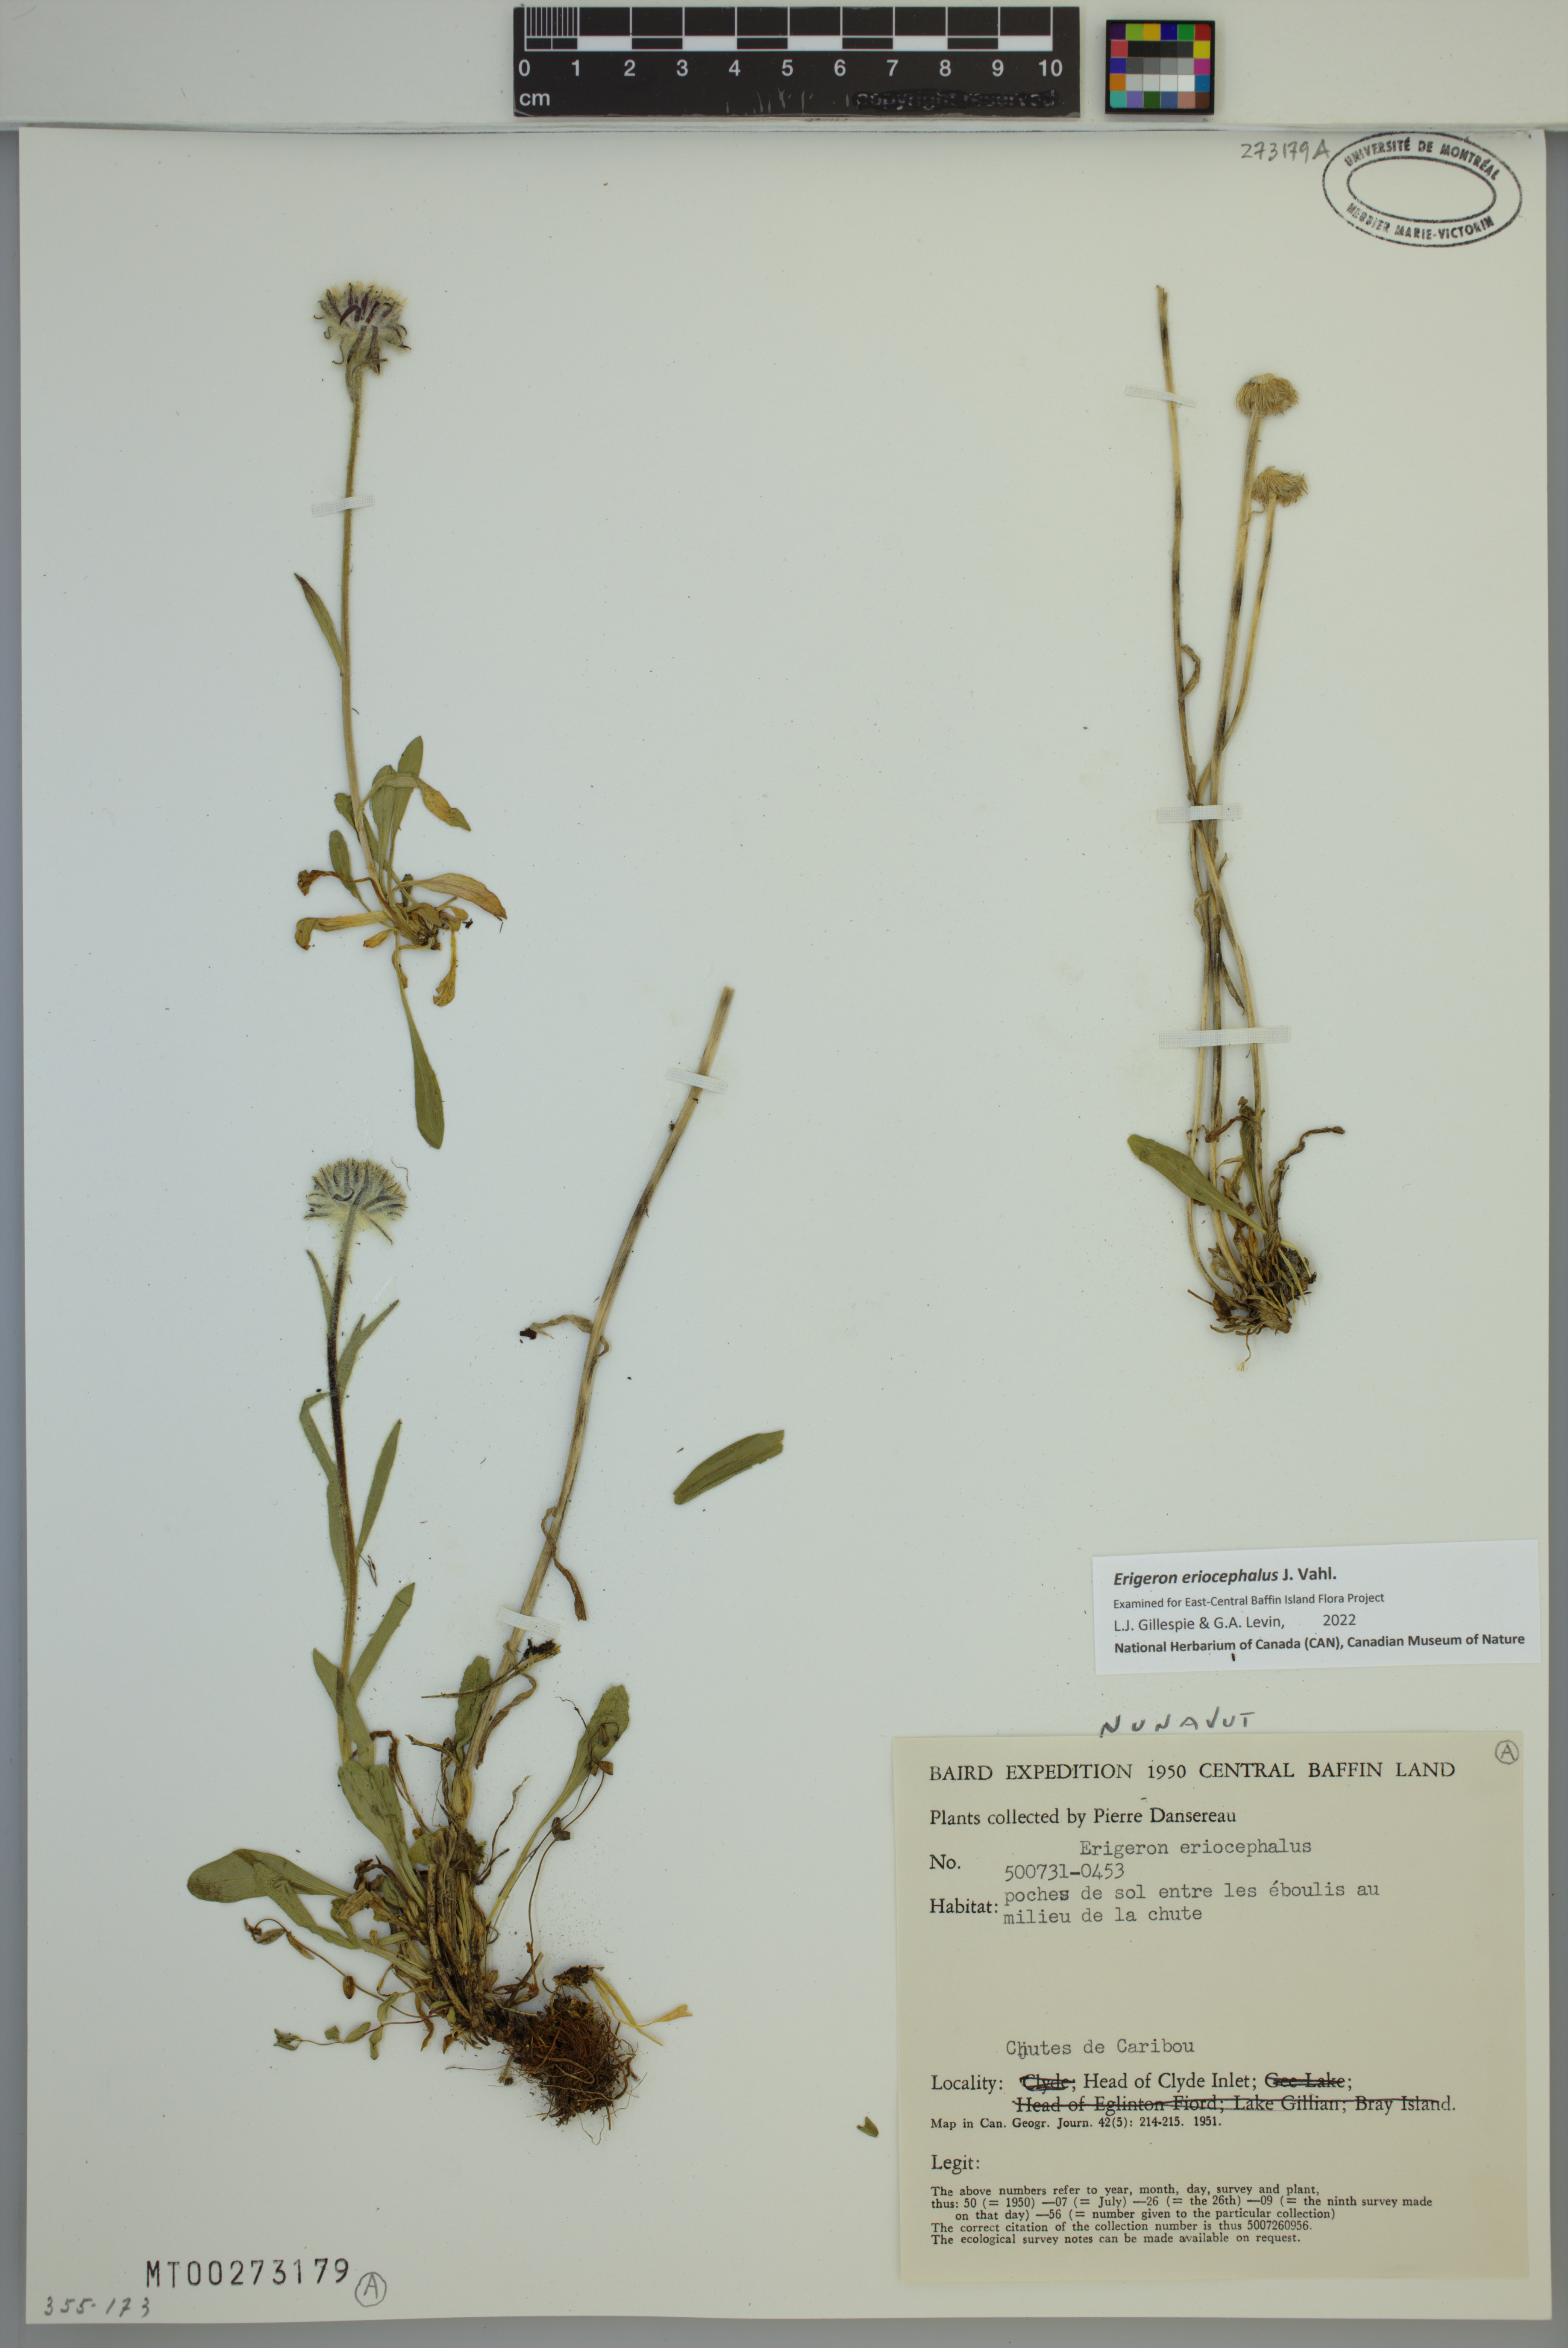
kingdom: Plantae
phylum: Tracheophyta
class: Magnoliopsida
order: Asterales
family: Asteraceae
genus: Erigeron
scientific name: Erigeron eriocephalus
